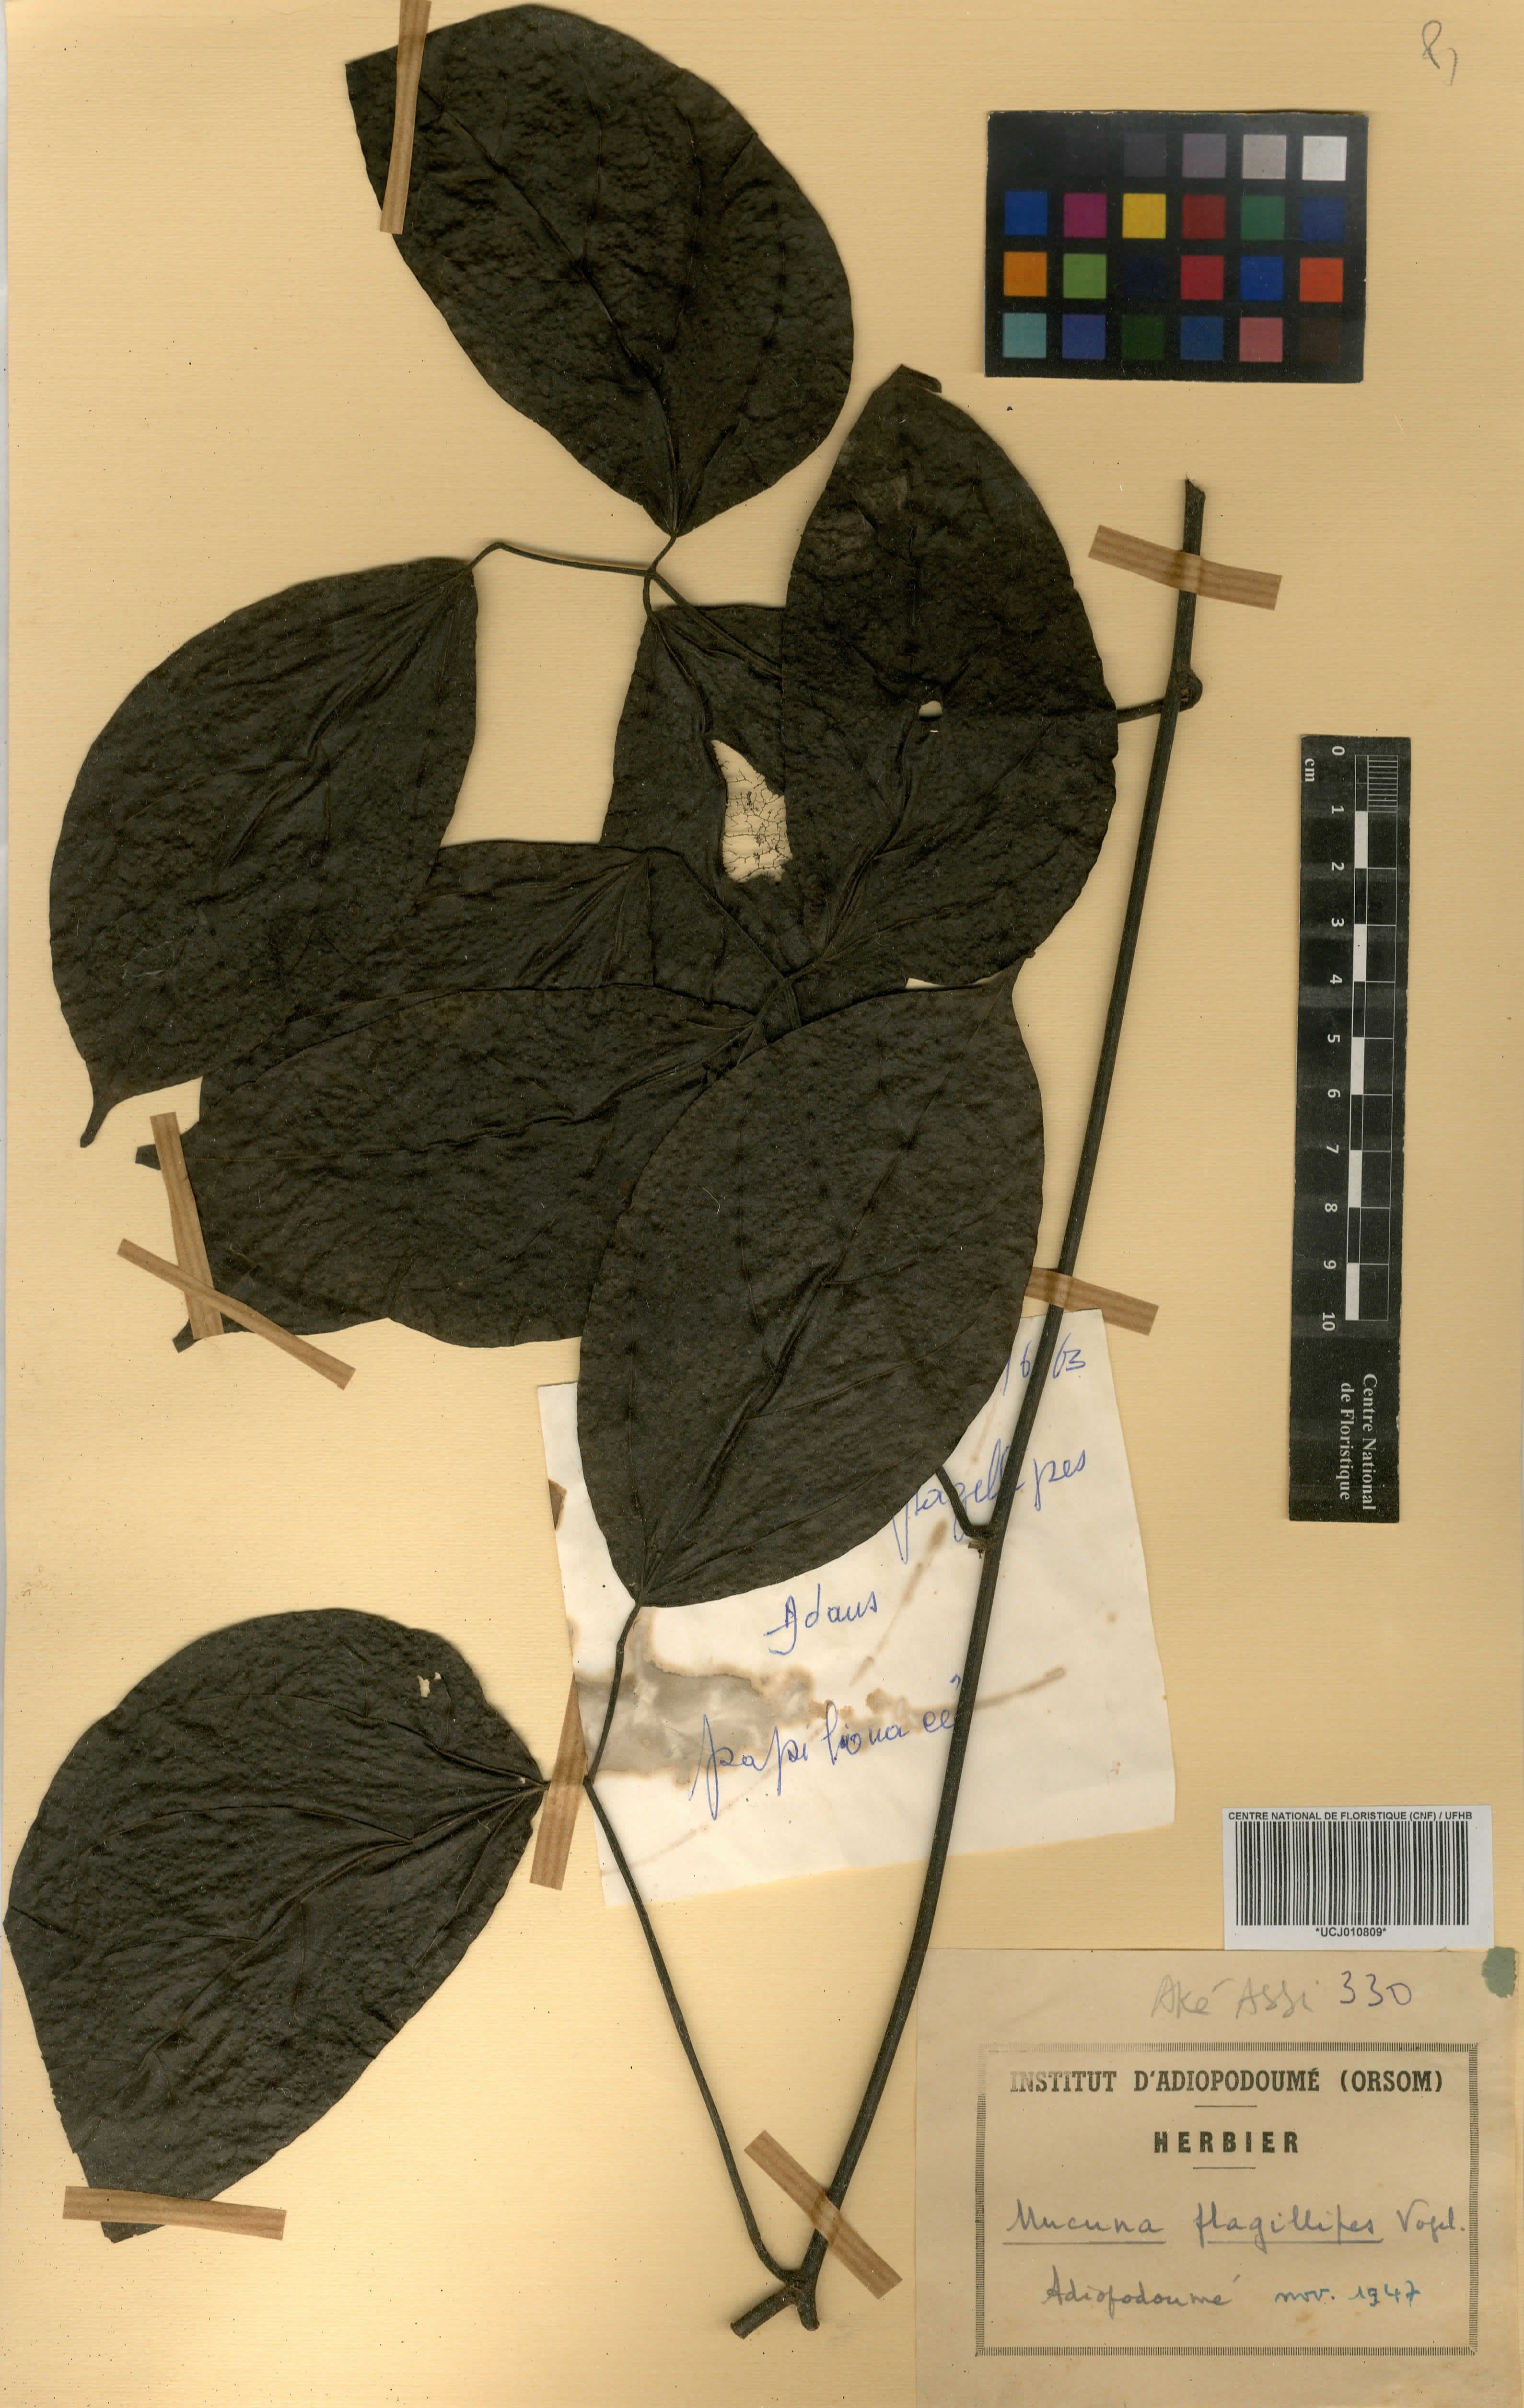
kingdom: Plantae
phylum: Tracheophyta
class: Magnoliopsida
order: Fabales
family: Fabaceae
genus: Mucuna
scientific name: Mucuna flagellipes
